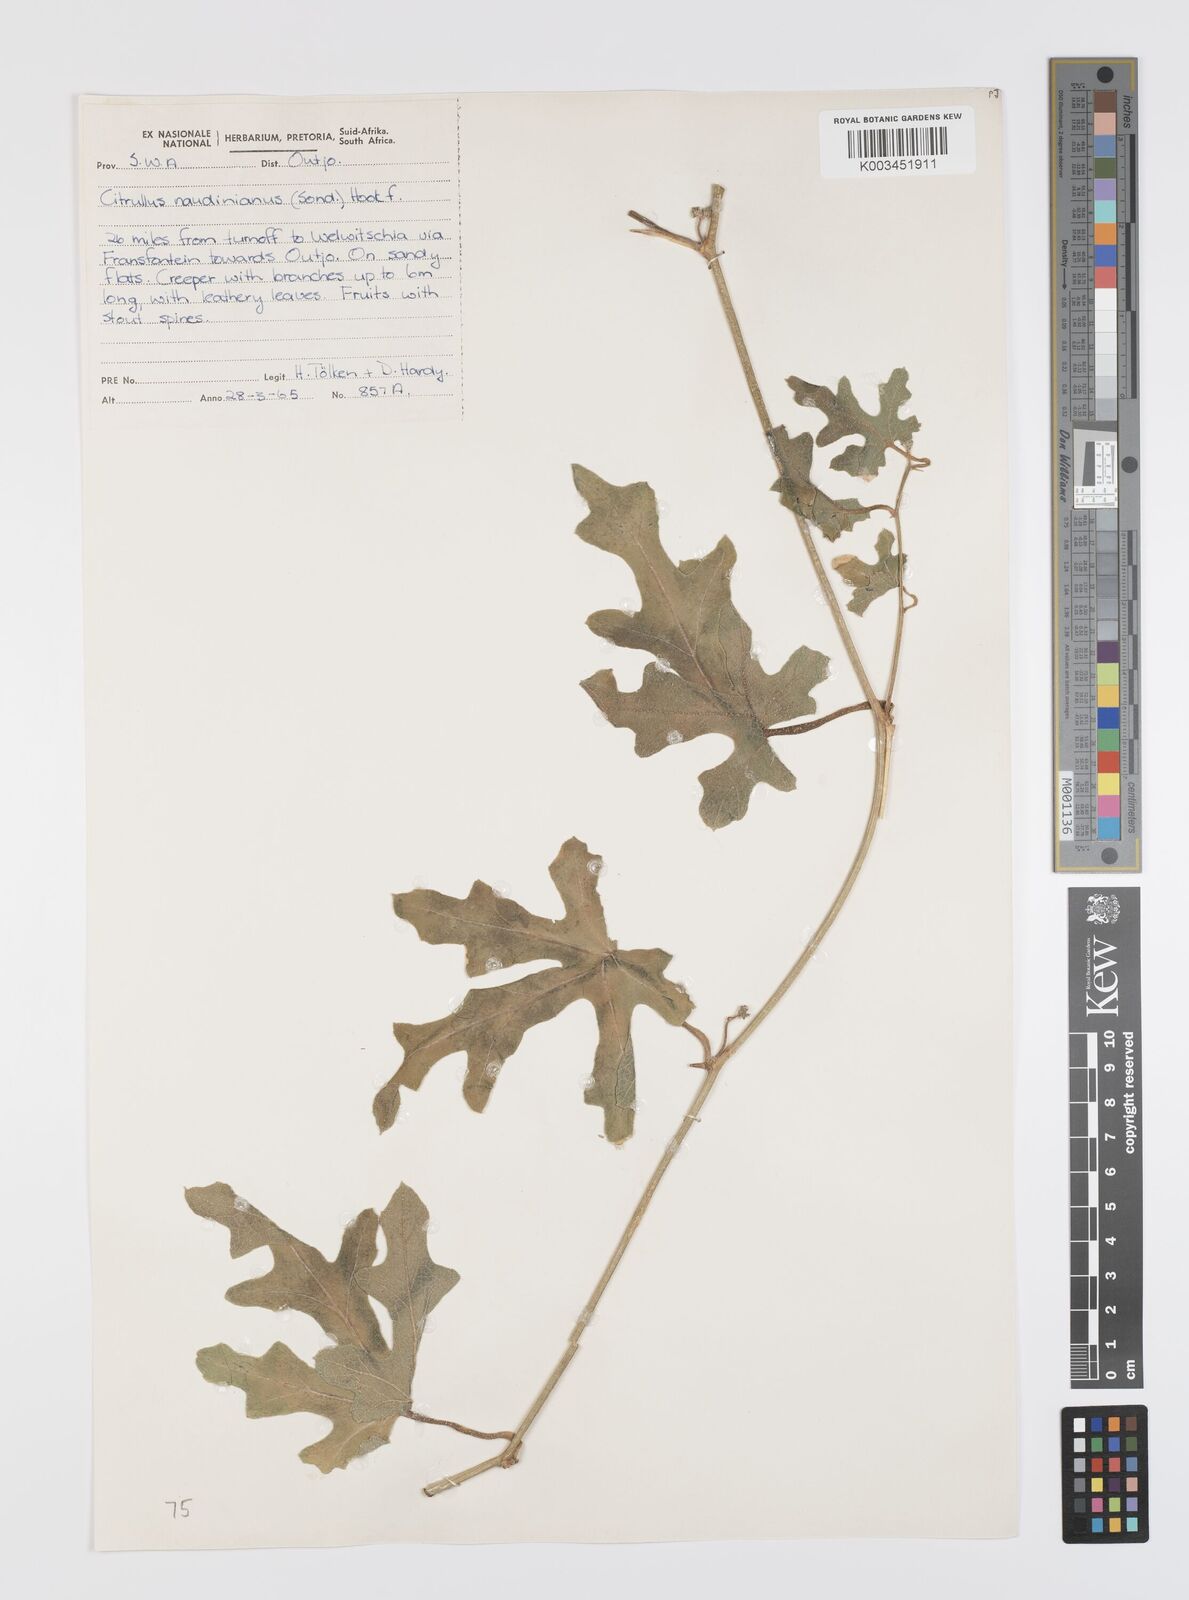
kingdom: Plantae
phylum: Tracheophyta
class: Magnoliopsida
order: Cucurbitales
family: Cucurbitaceae
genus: Citrullus
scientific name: Citrullus naudinianus
